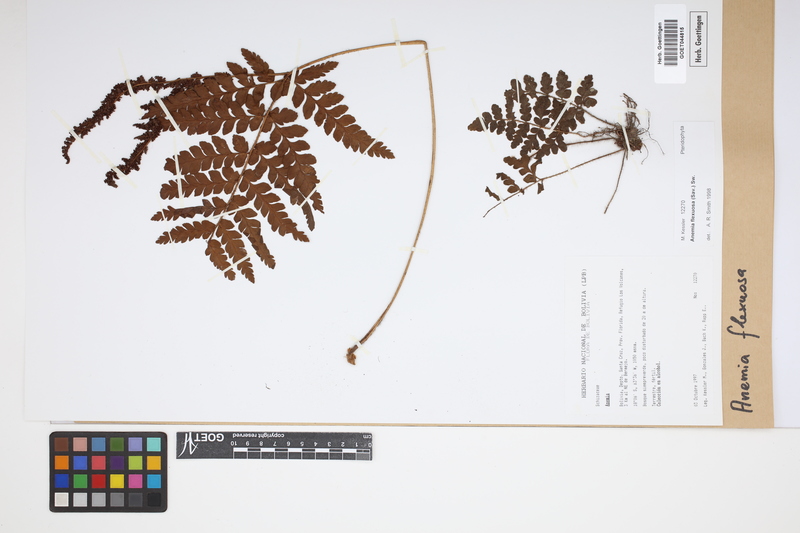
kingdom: Plantae
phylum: Tracheophyta
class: Polypodiopsida
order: Schizaeales
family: Anemiaceae
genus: Anemia
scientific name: Anemia flexuosa
